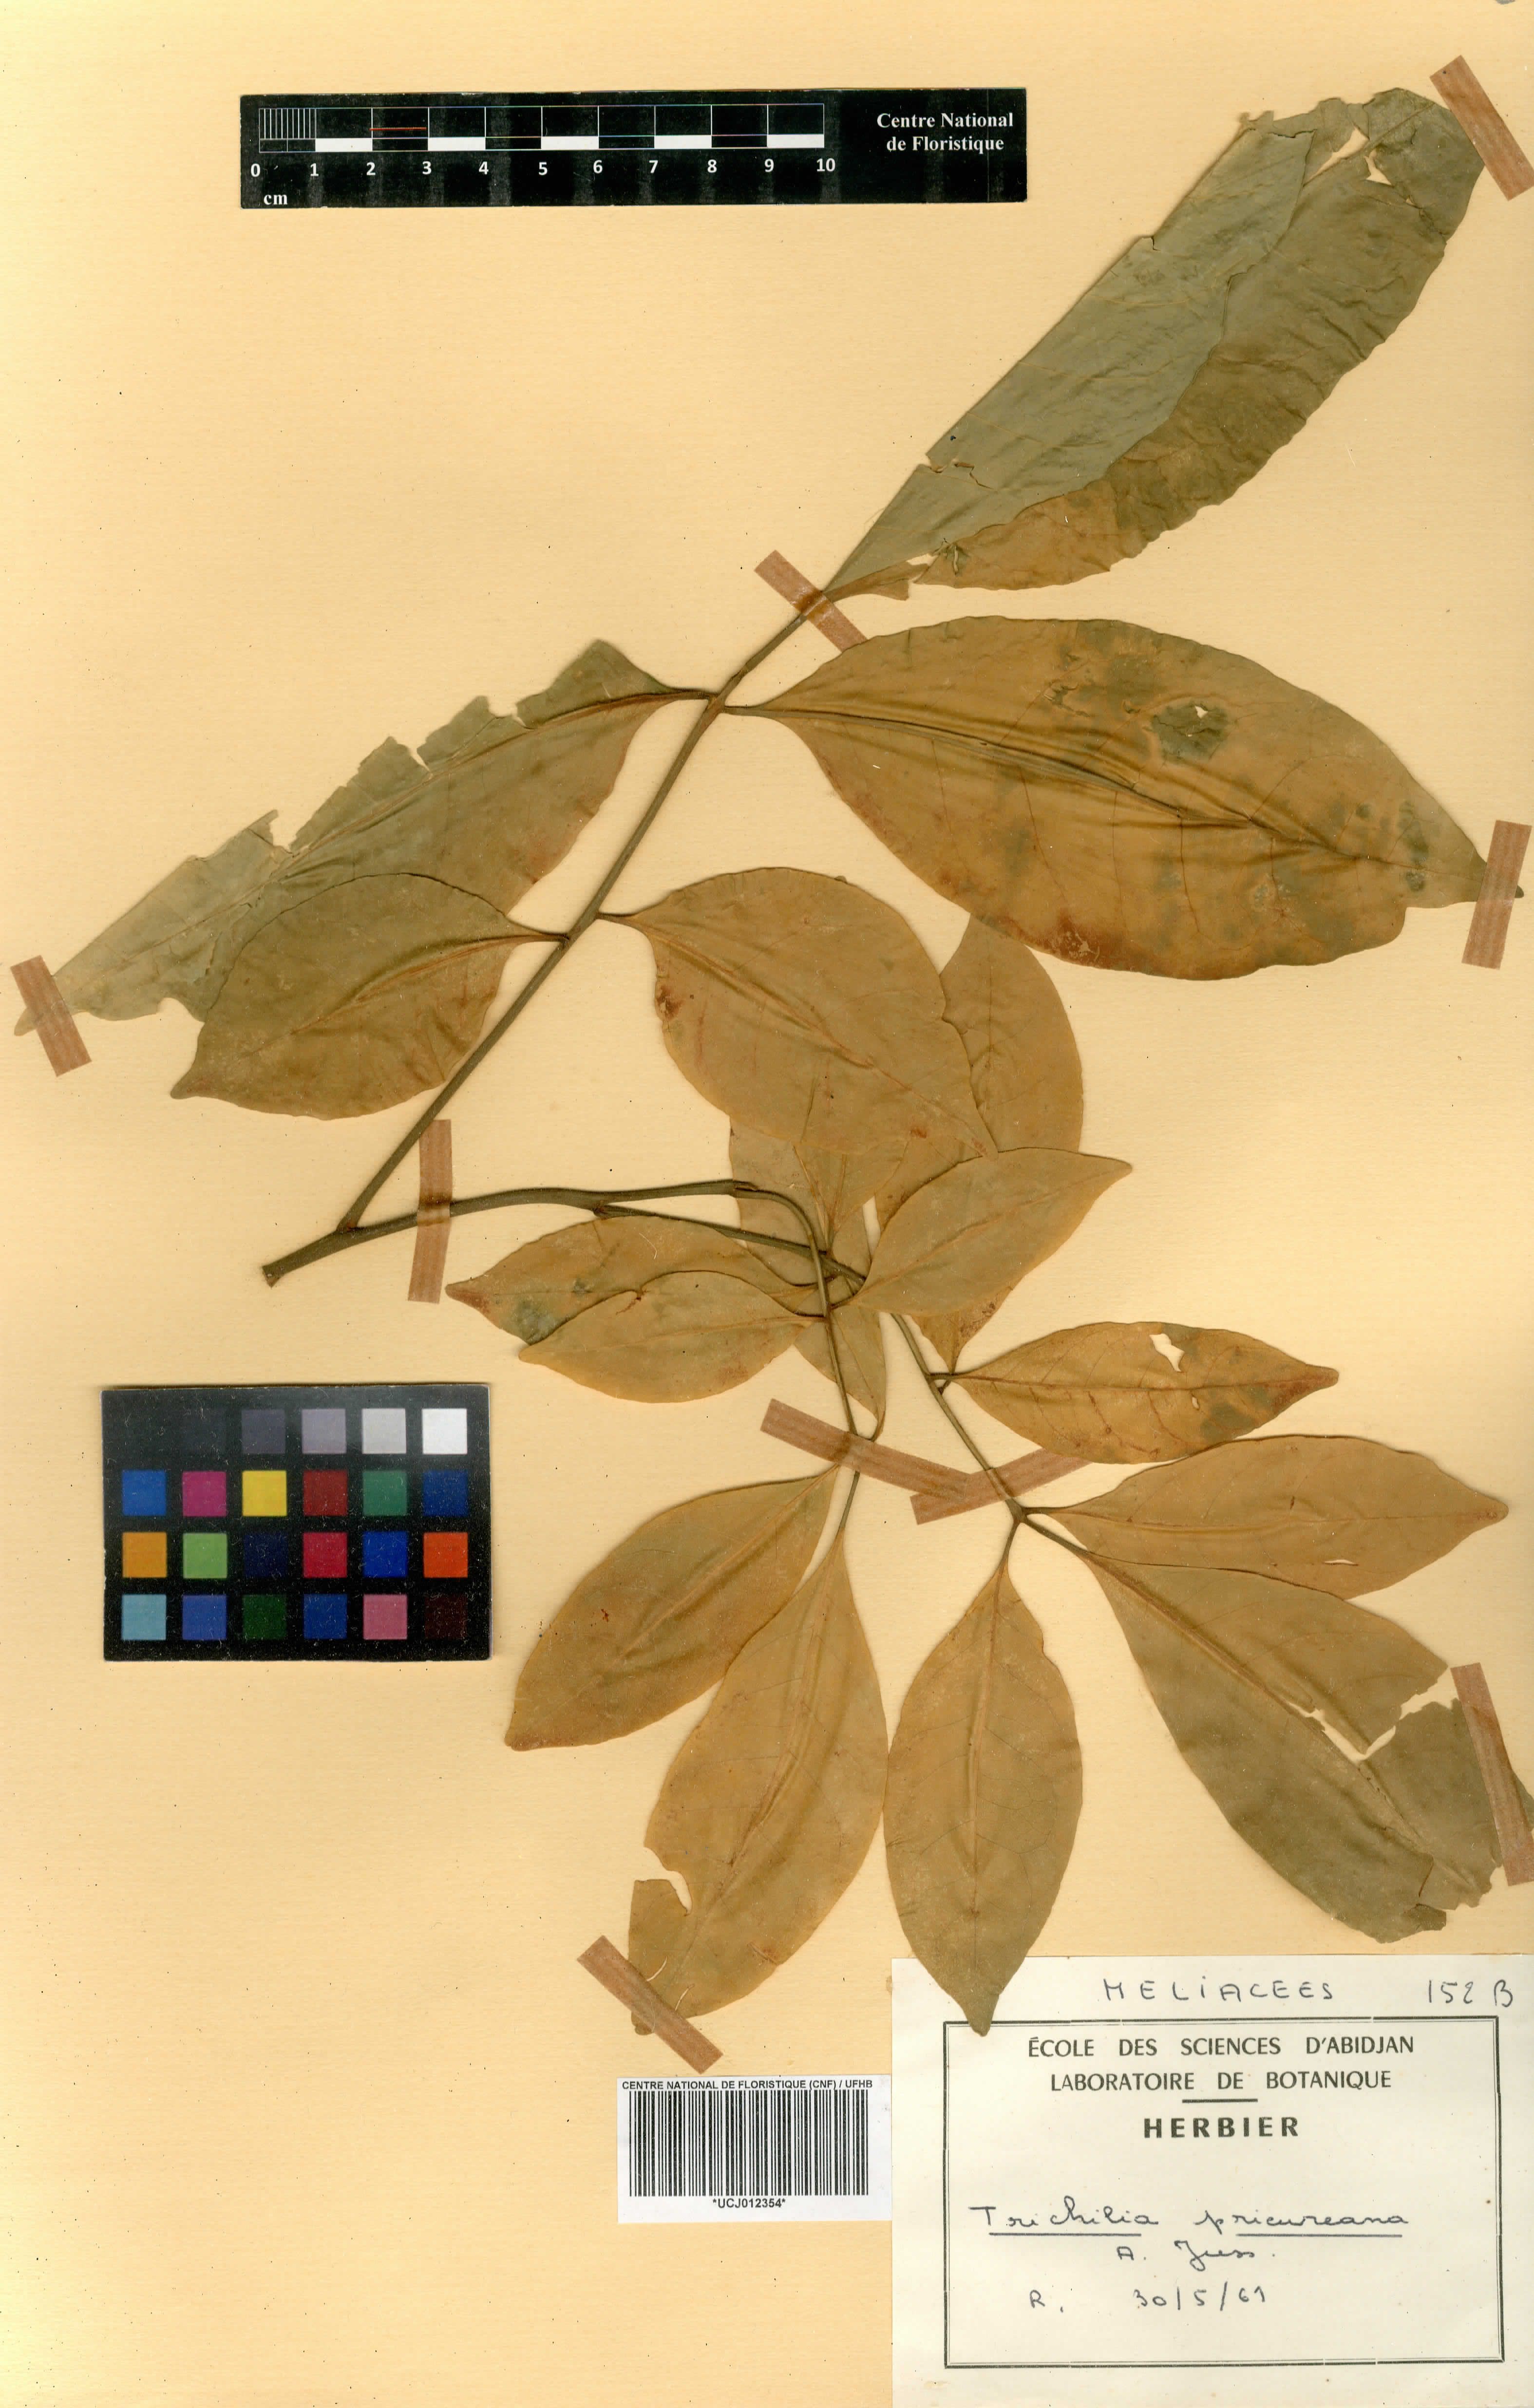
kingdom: Plantae
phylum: Tracheophyta
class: Magnoliopsida
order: Sapindales
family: Meliaceae
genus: Trichilia
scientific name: Trichilia prieureana
